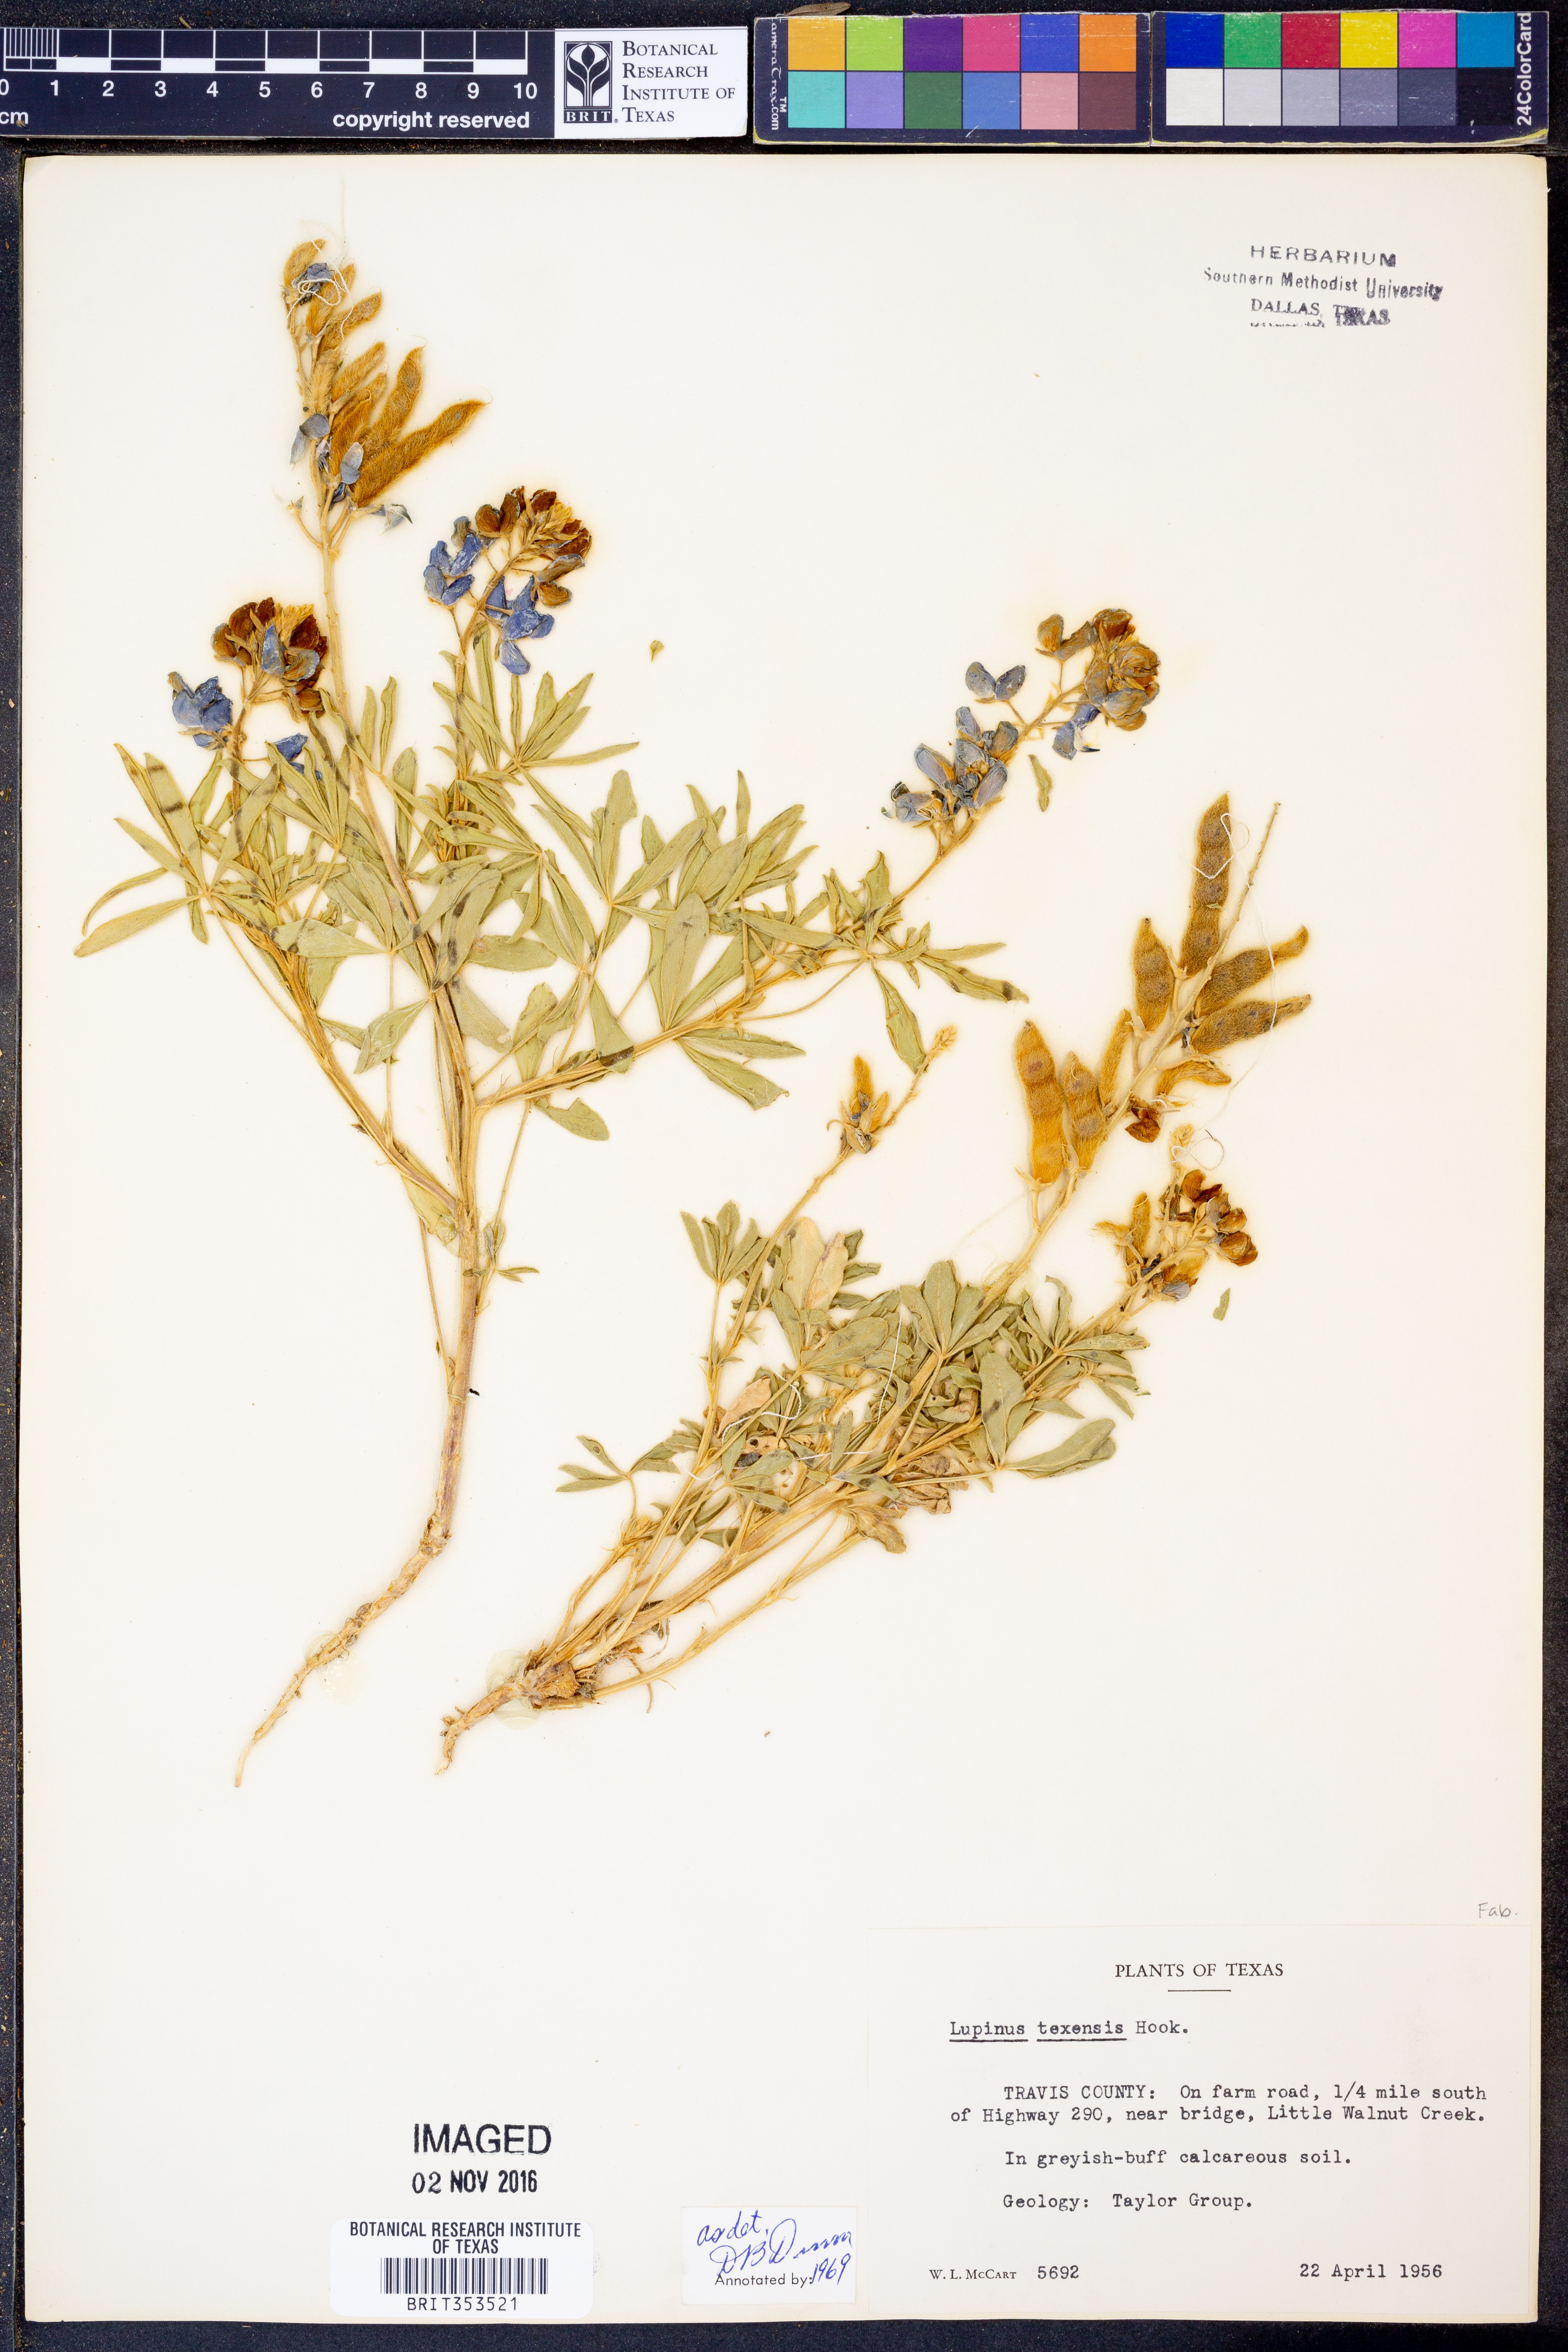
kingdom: Plantae
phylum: Tracheophyta
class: Magnoliopsida
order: Fabales
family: Fabaceae
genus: Lupinus
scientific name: Lupinus texensis
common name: Texas bluebonnet
